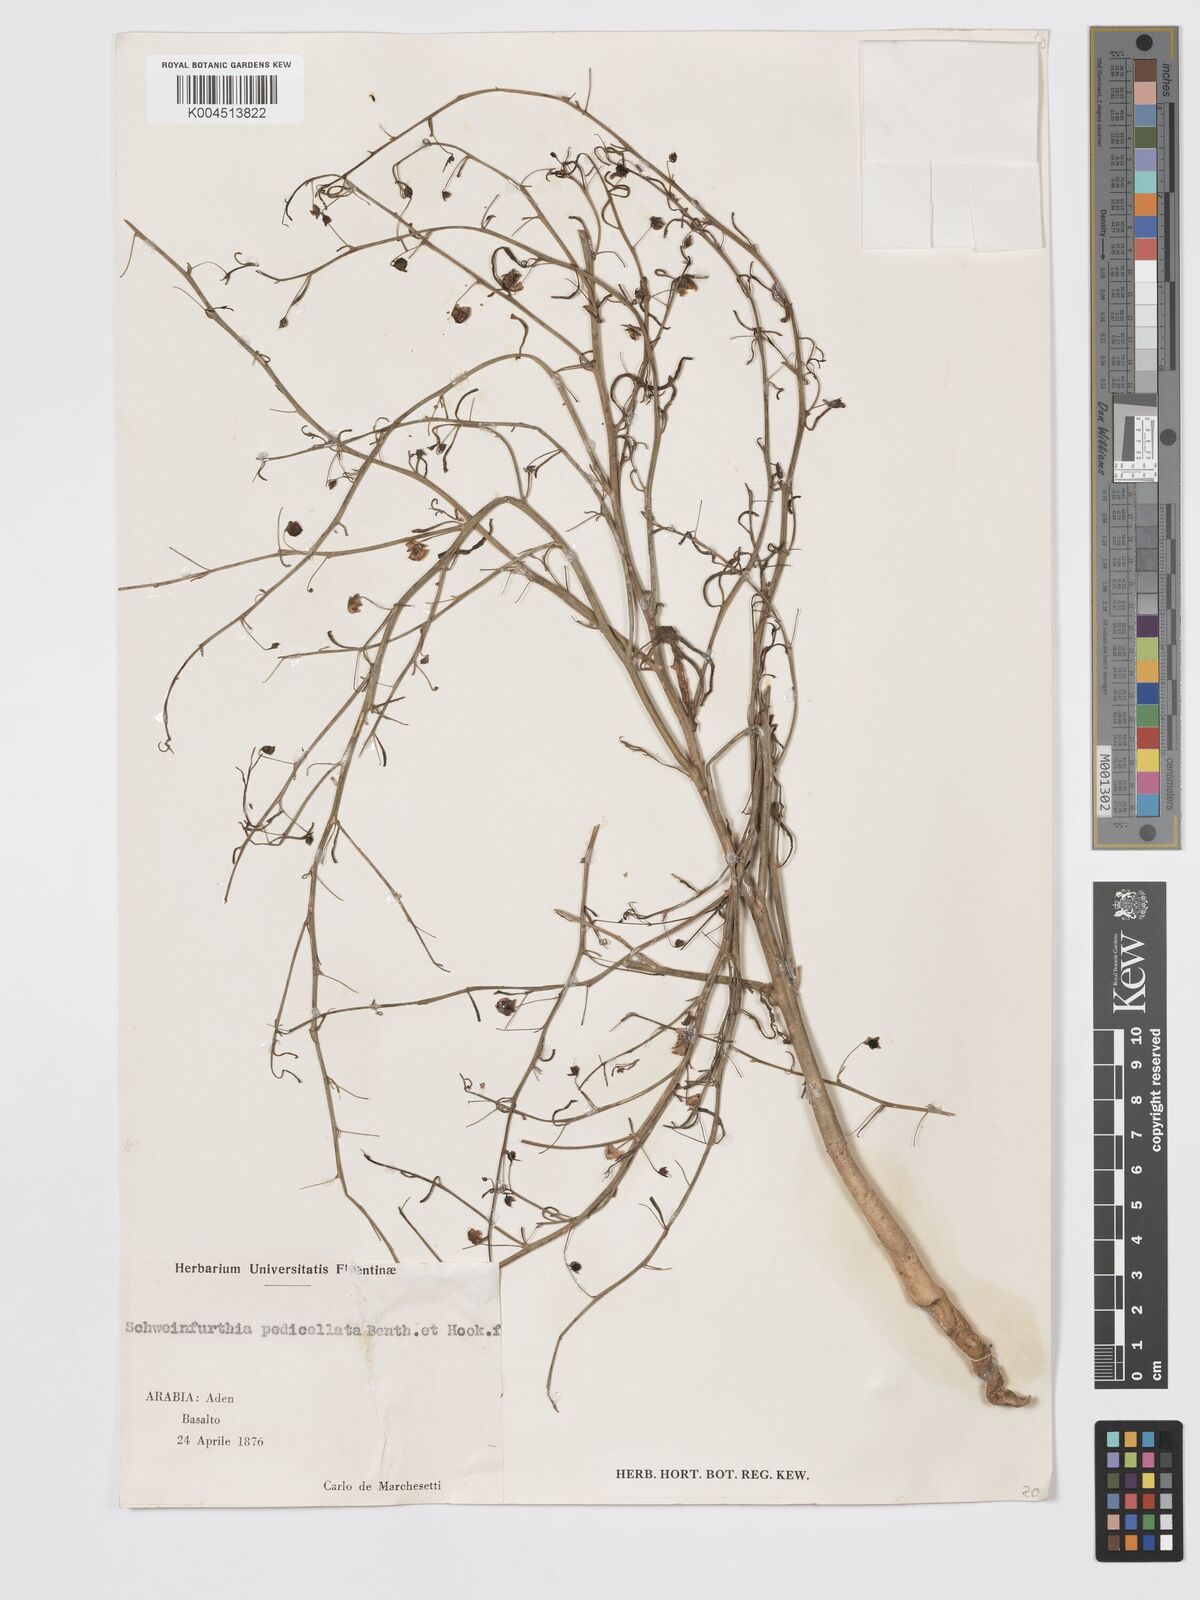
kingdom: Plantae
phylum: Tracheophyta
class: Magnoliopsida
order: Lamiales
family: Plantaginaceae
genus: Schweinfurthia
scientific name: Schweinfurthia pedicellata
